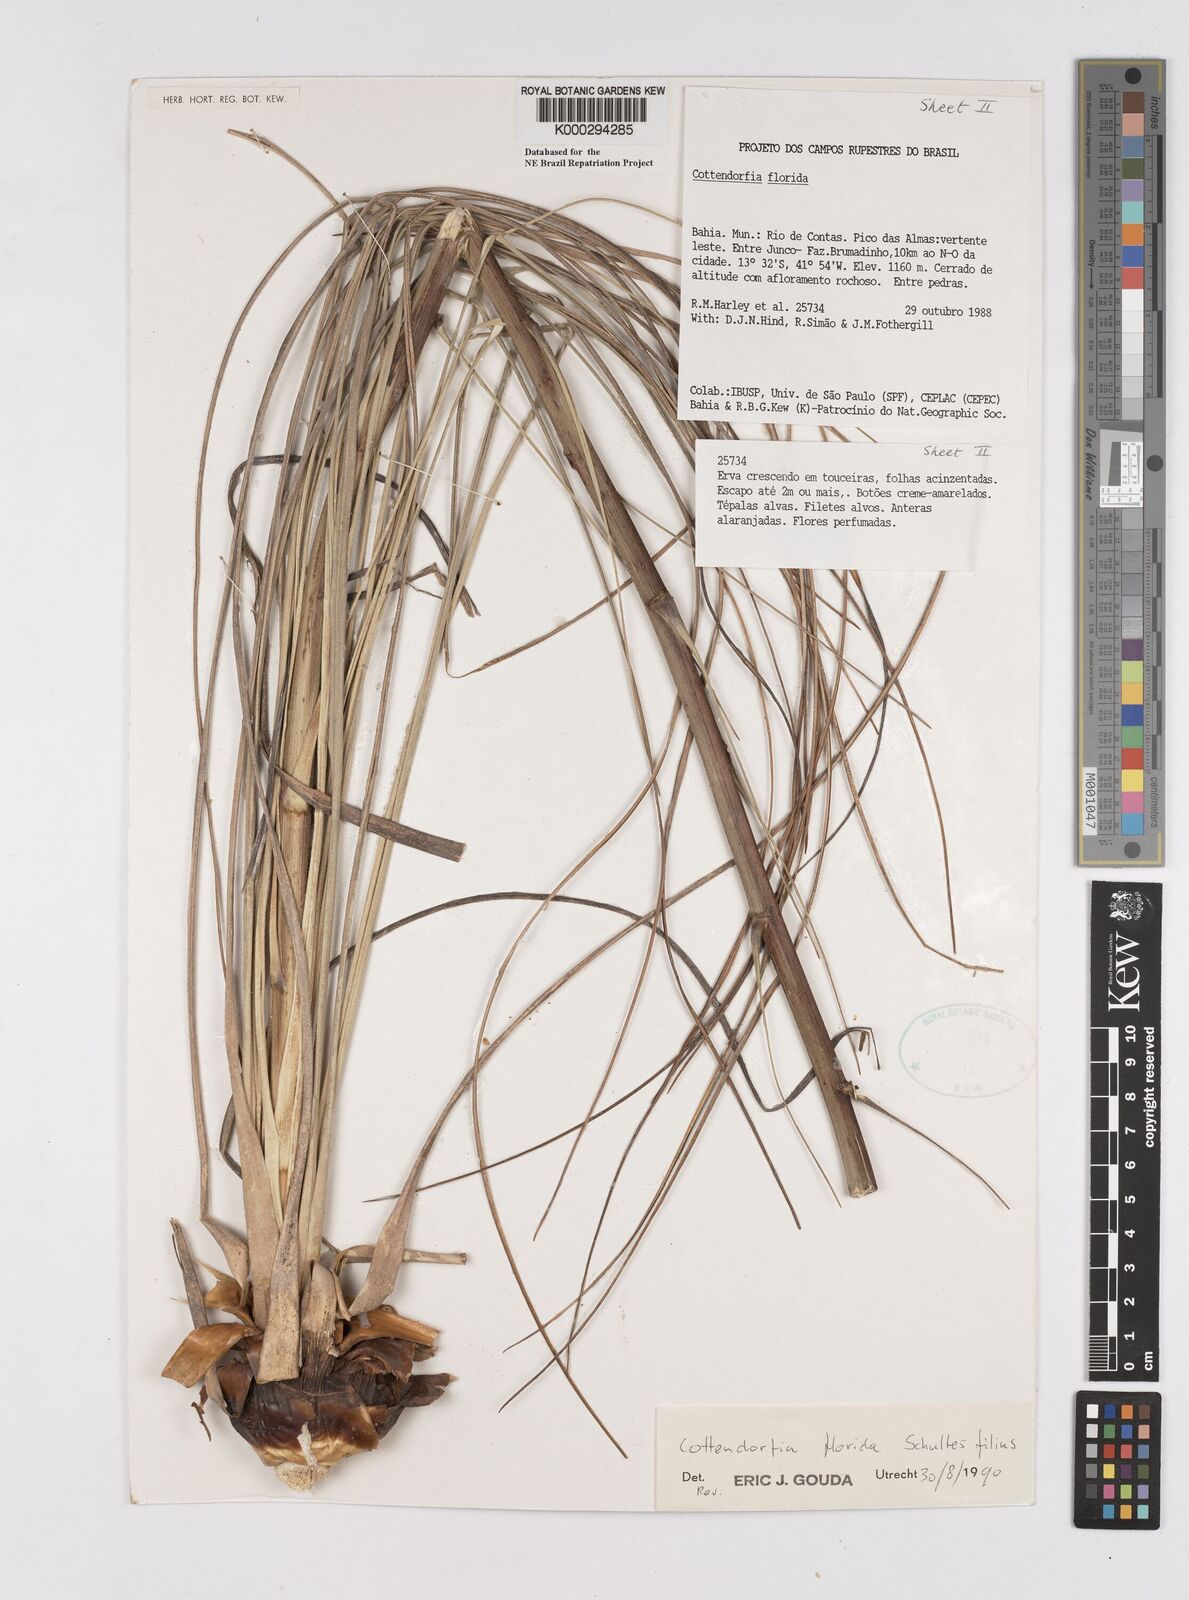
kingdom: Plantae
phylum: Tracheophyta
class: Liliopsida
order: Poales
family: Bromeliaceae
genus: Cottendorfia
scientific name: Cottendorfia florida
